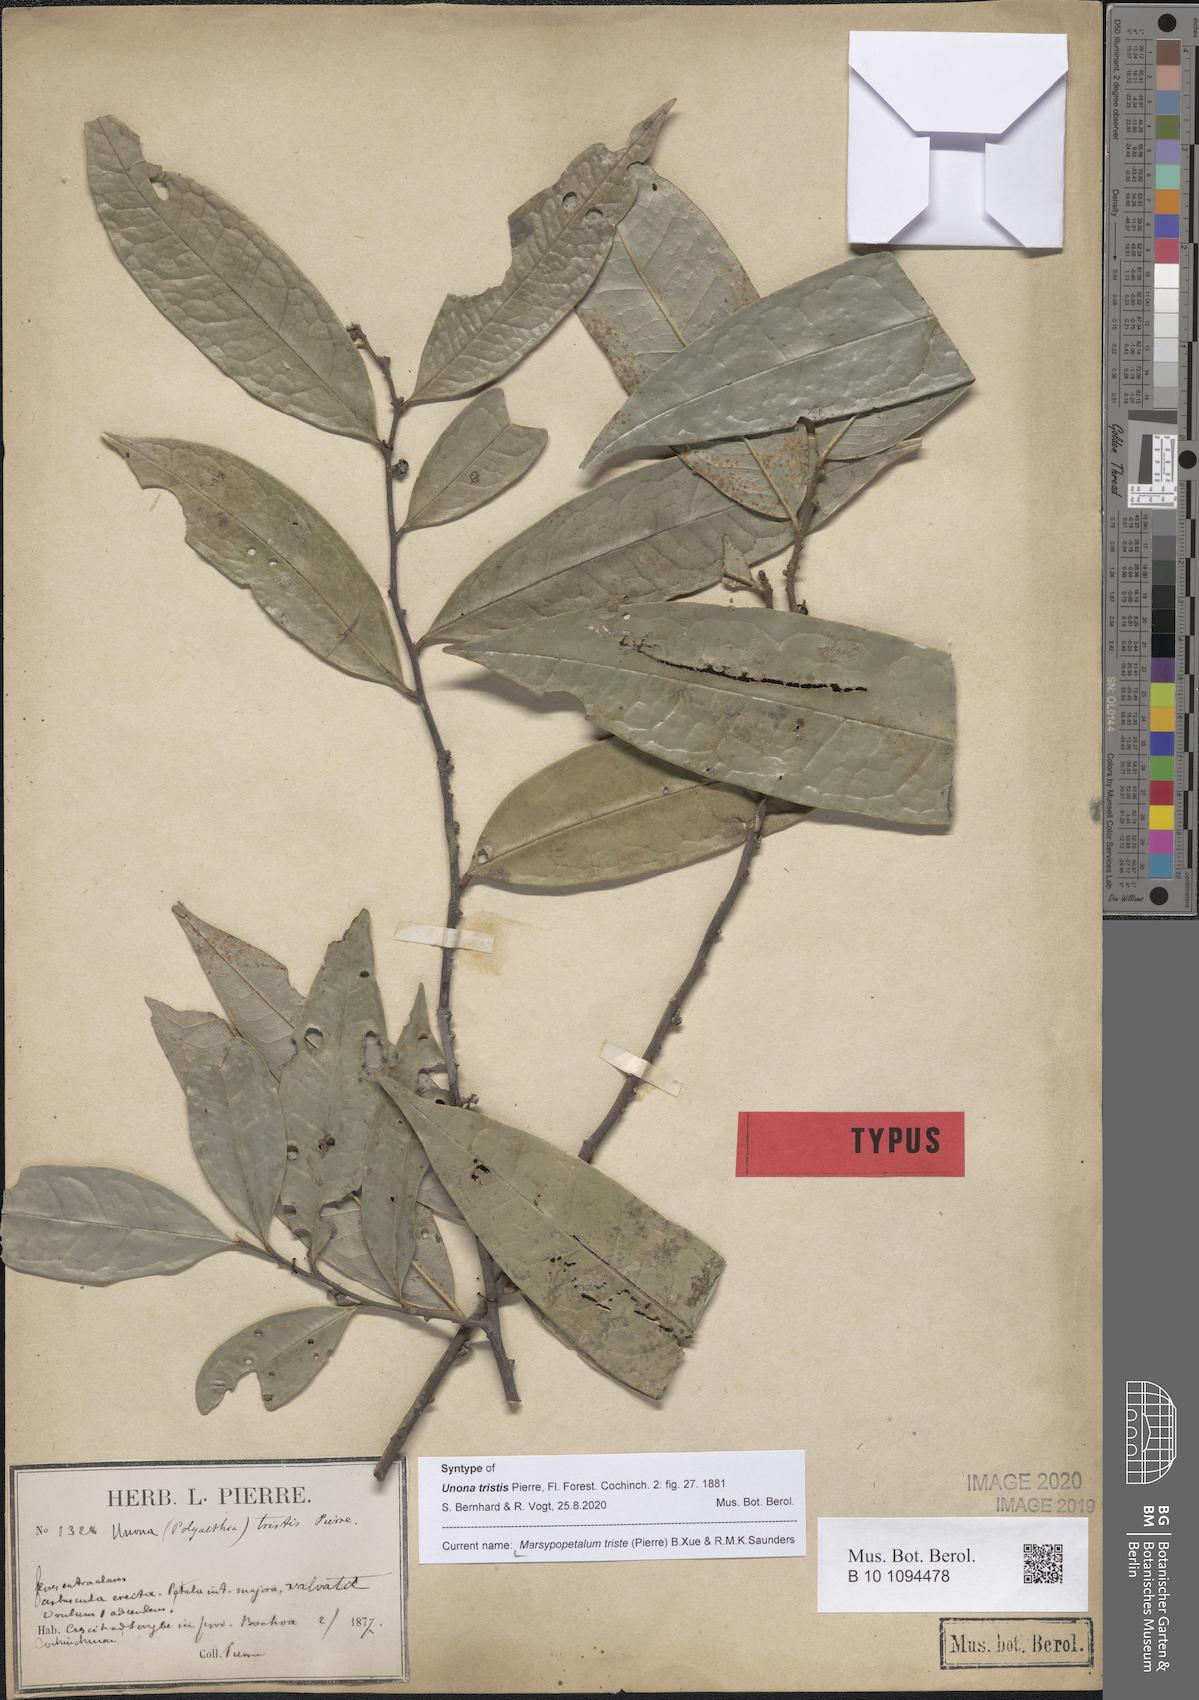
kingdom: Plantae
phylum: Tracheophyta
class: Magnoliopsida
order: Magnoliales
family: Annonaceae
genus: Marsypopetalum
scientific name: Marsypopetalum triste
